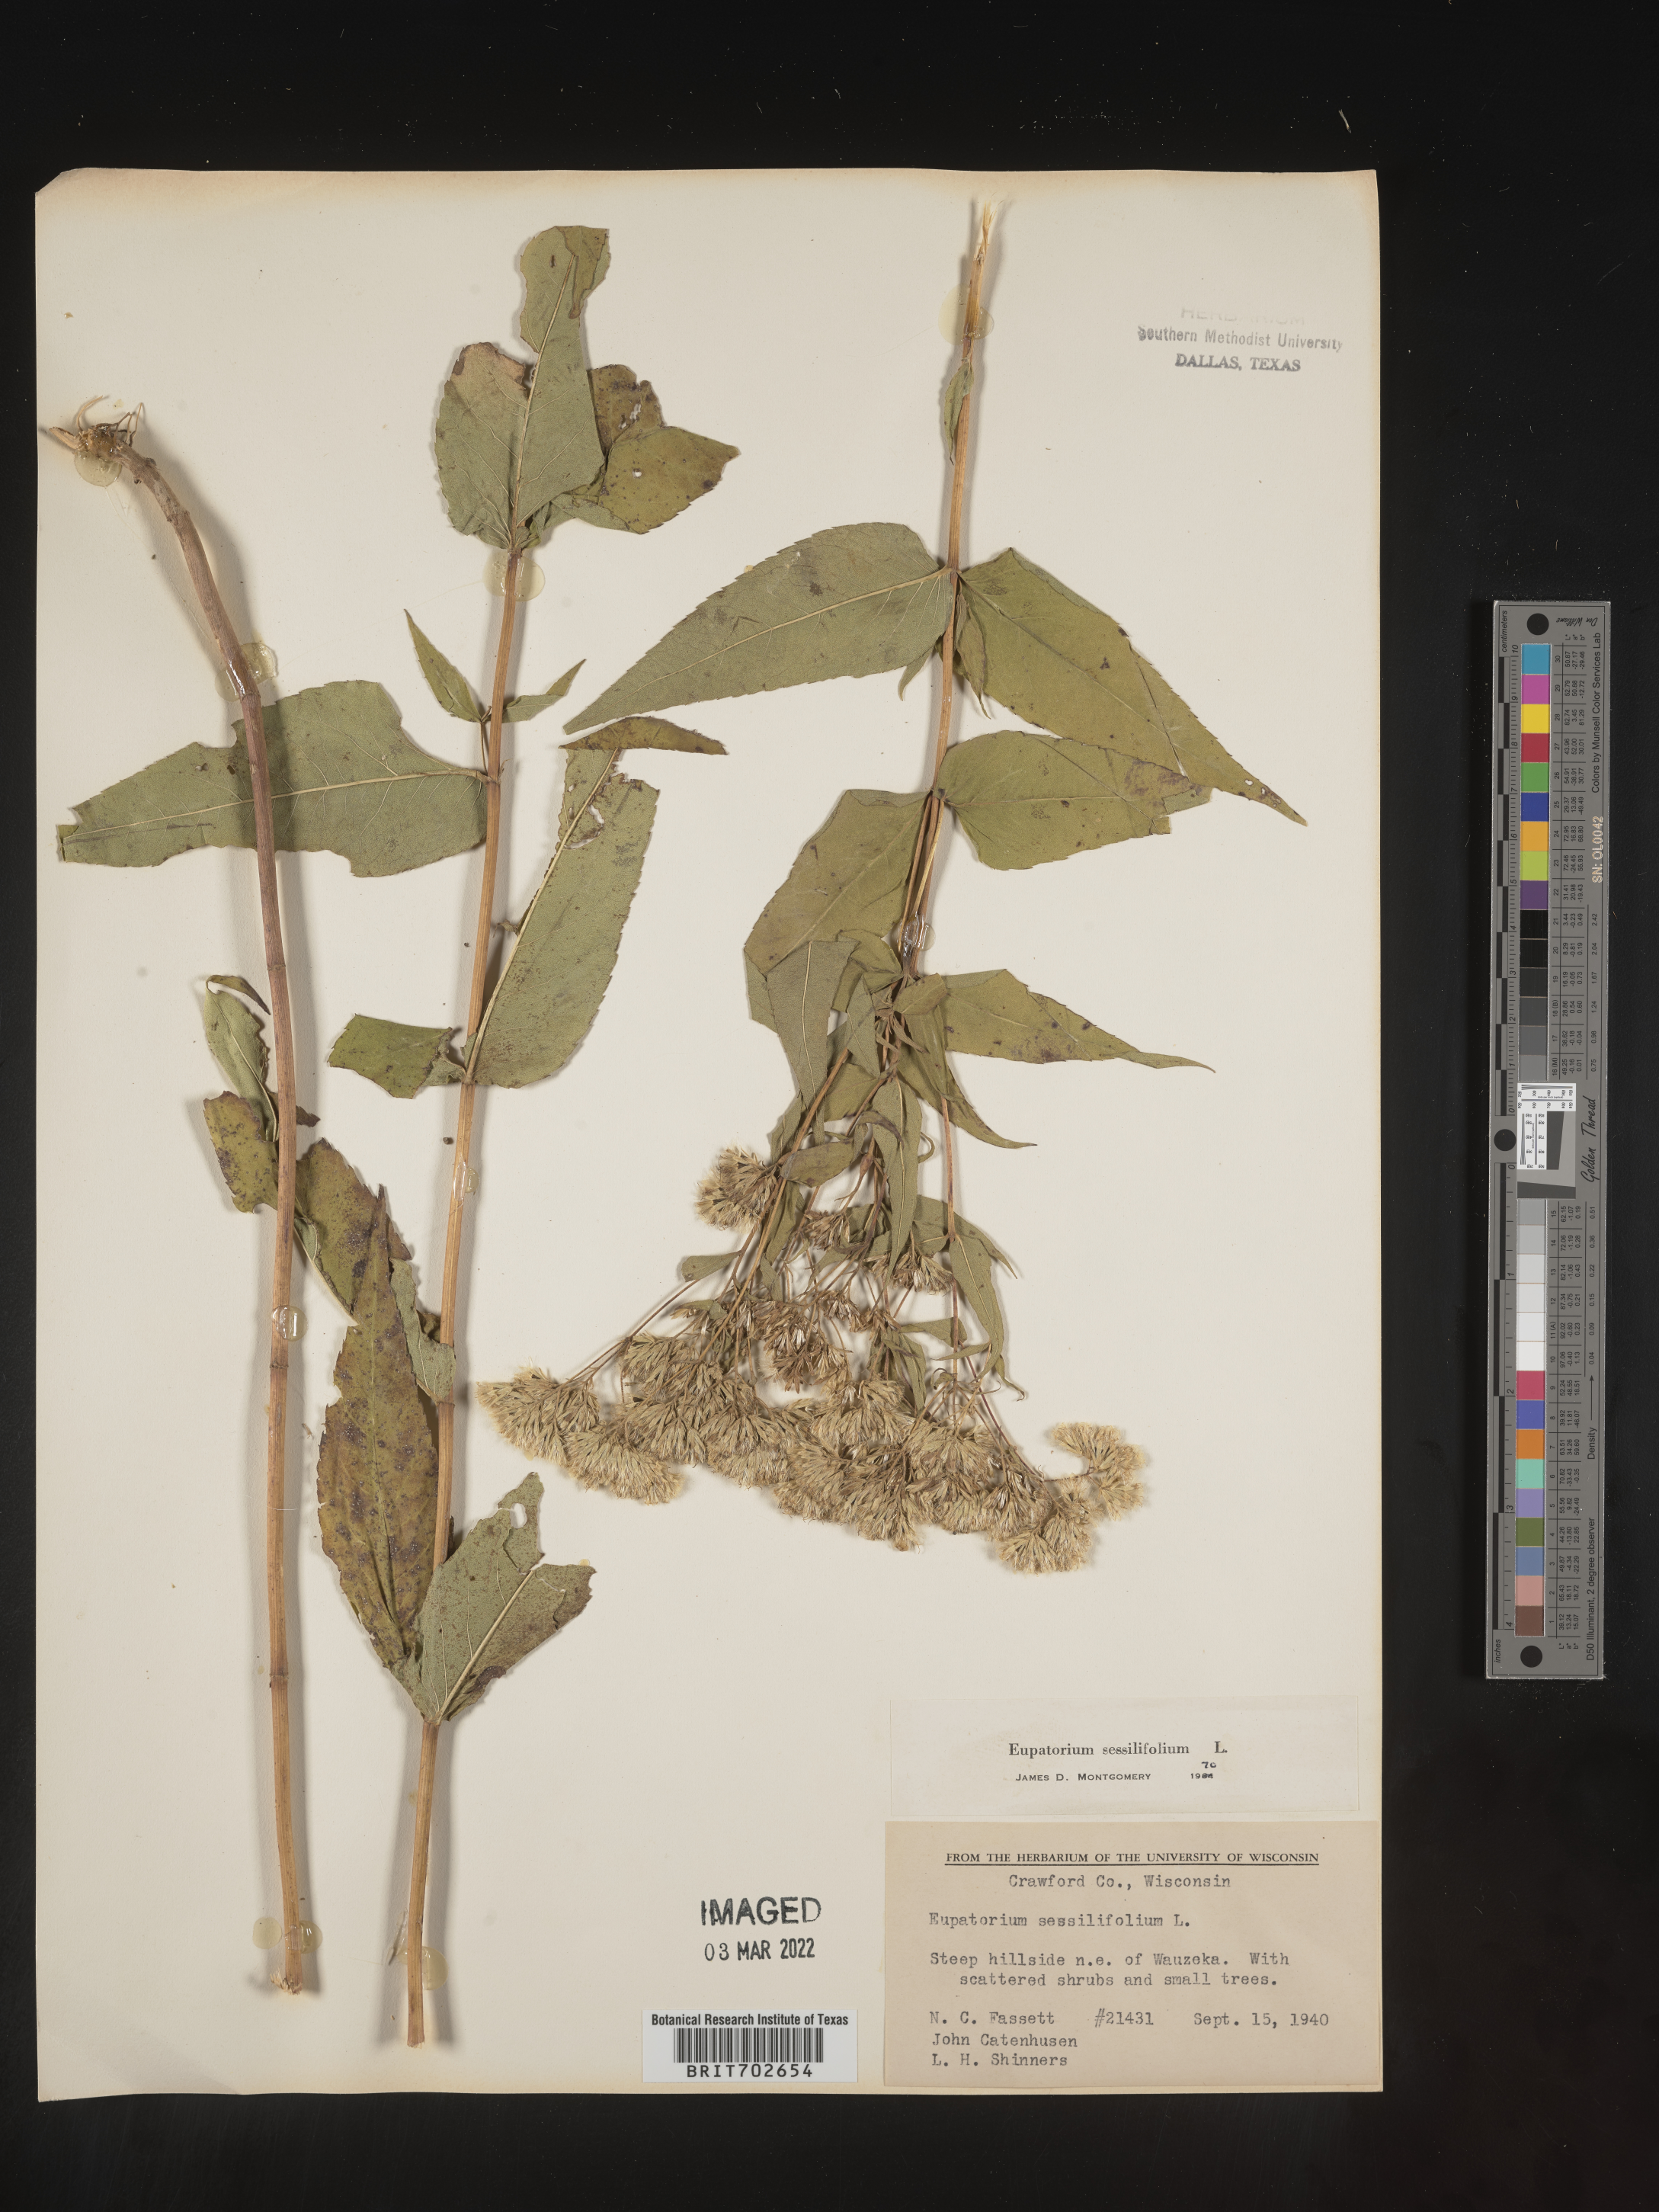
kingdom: Plantae
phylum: Tracheophyta
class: Magnoliopsida
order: Asterales
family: Asteraceae
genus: Eupatorium
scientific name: Eupatorium sessilifolium
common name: Upland boneset
